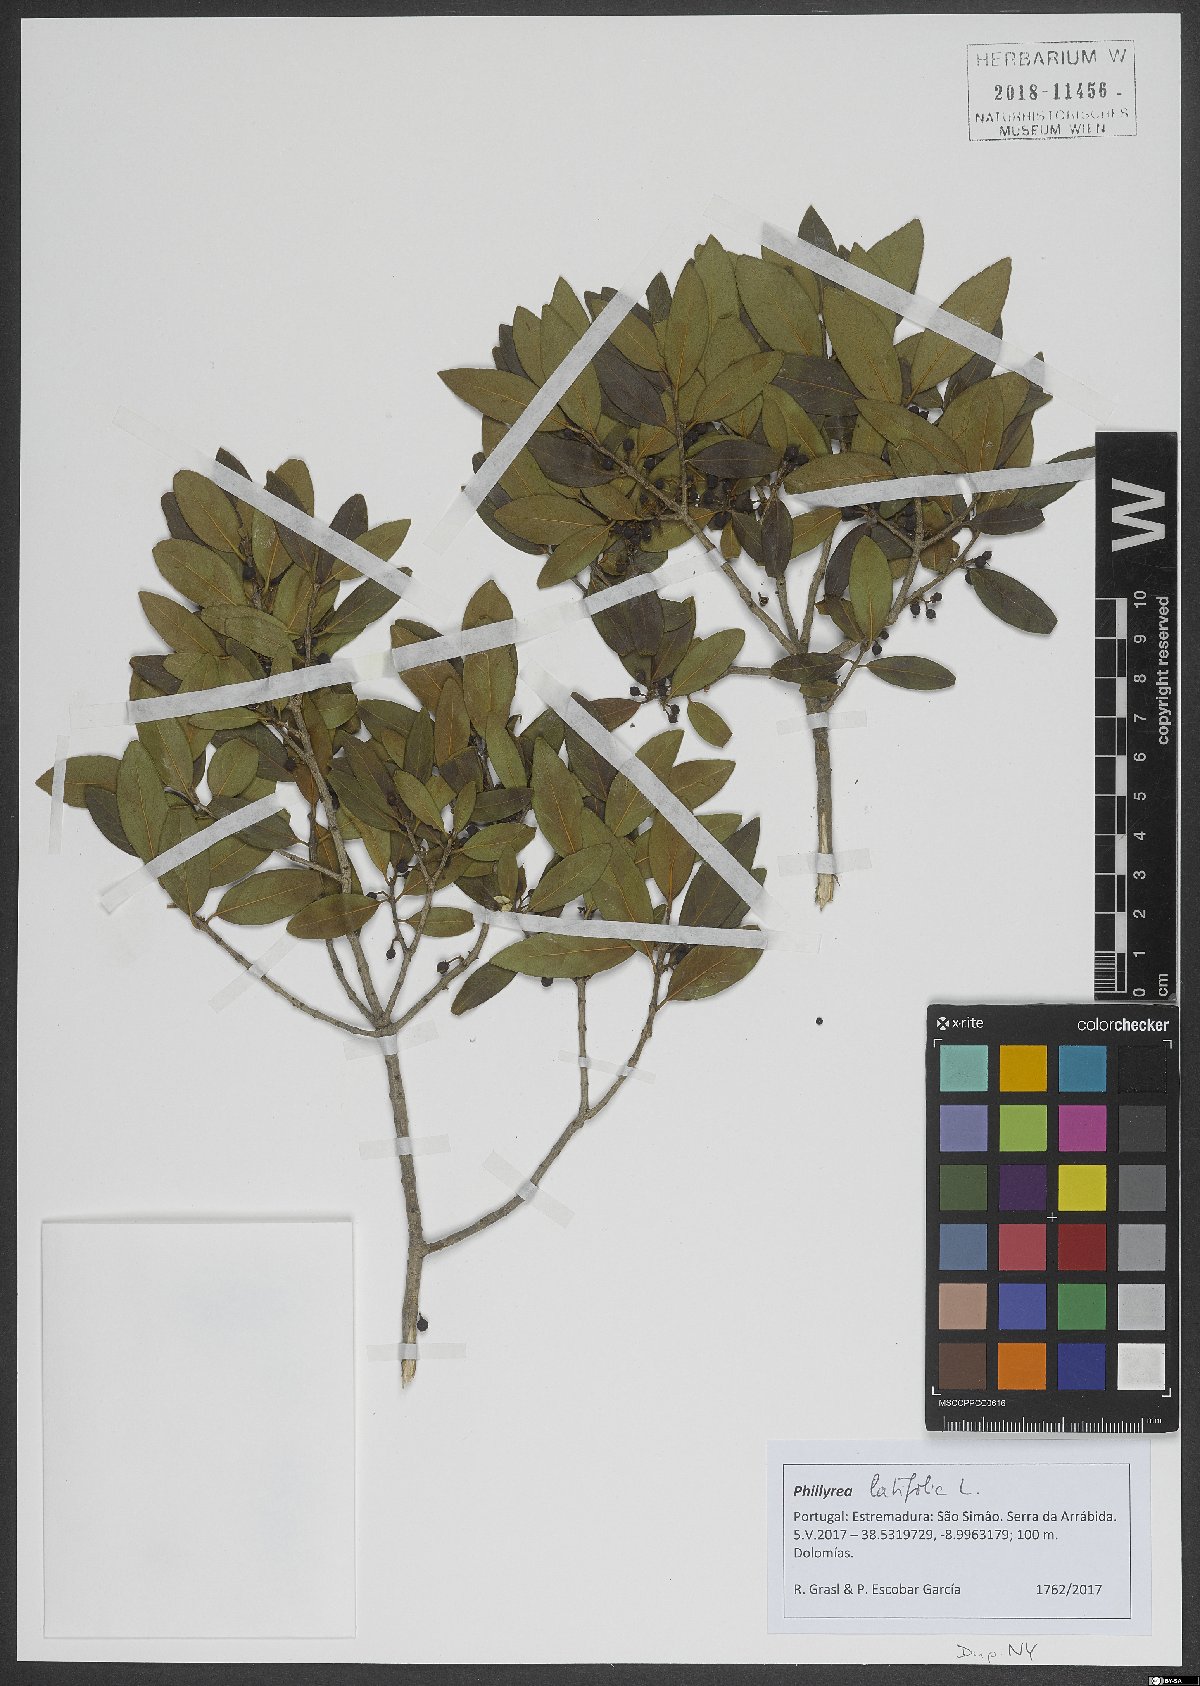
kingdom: Plantae
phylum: Tracheophyta
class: Magnoliopsida
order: Lamiales
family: Oleaceae
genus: Phillyrea
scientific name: Phillyrea latifolia
